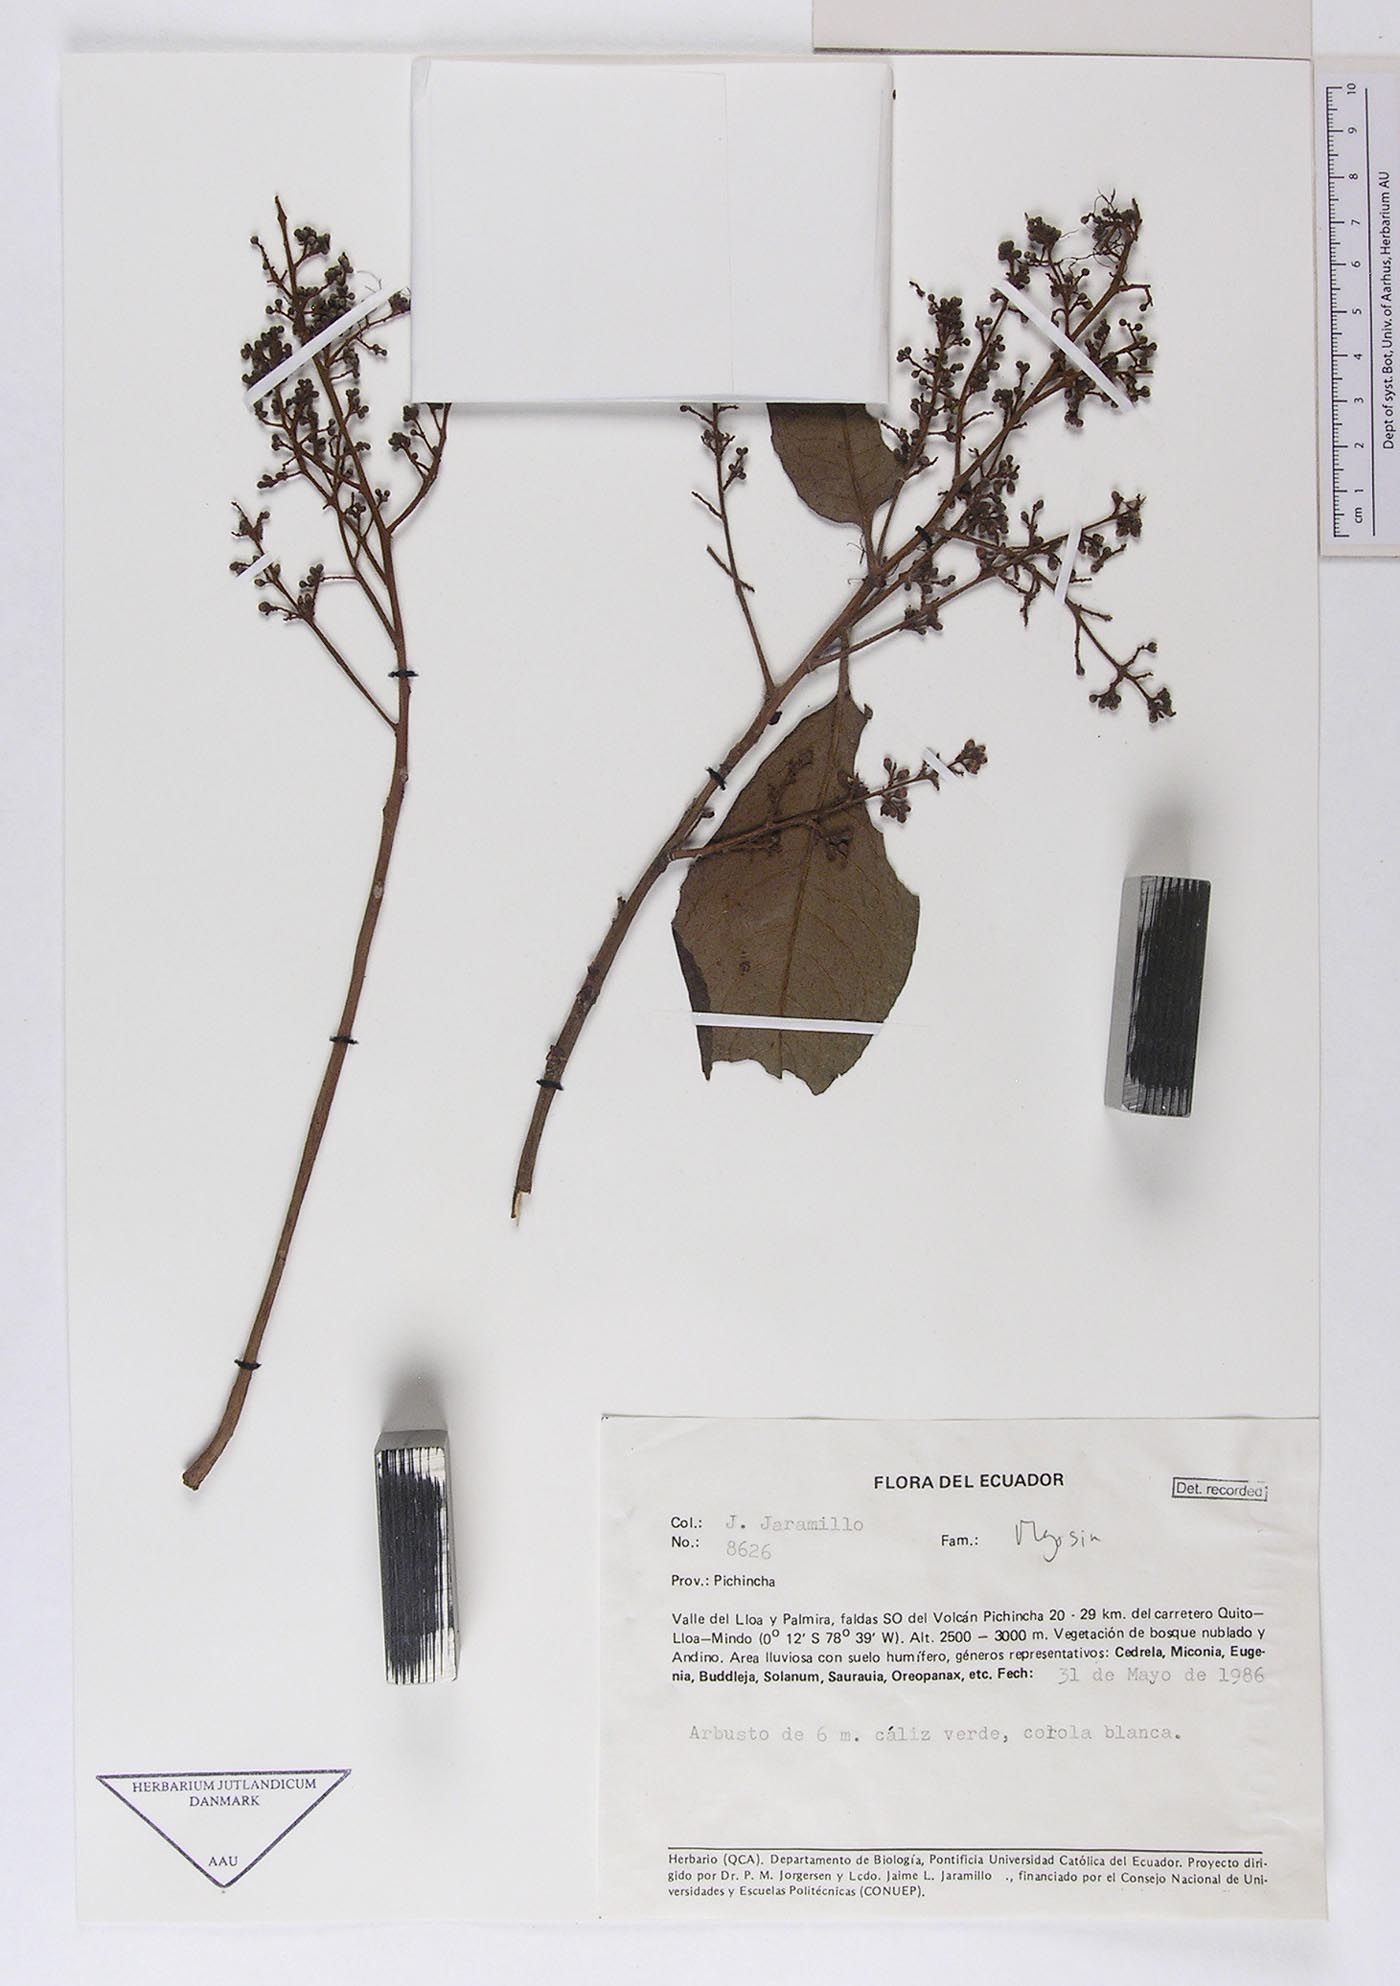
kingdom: Plantae
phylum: Tracheophyta
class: Magnoliopsida
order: Ericales
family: Primulaceae
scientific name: Primulaceae
